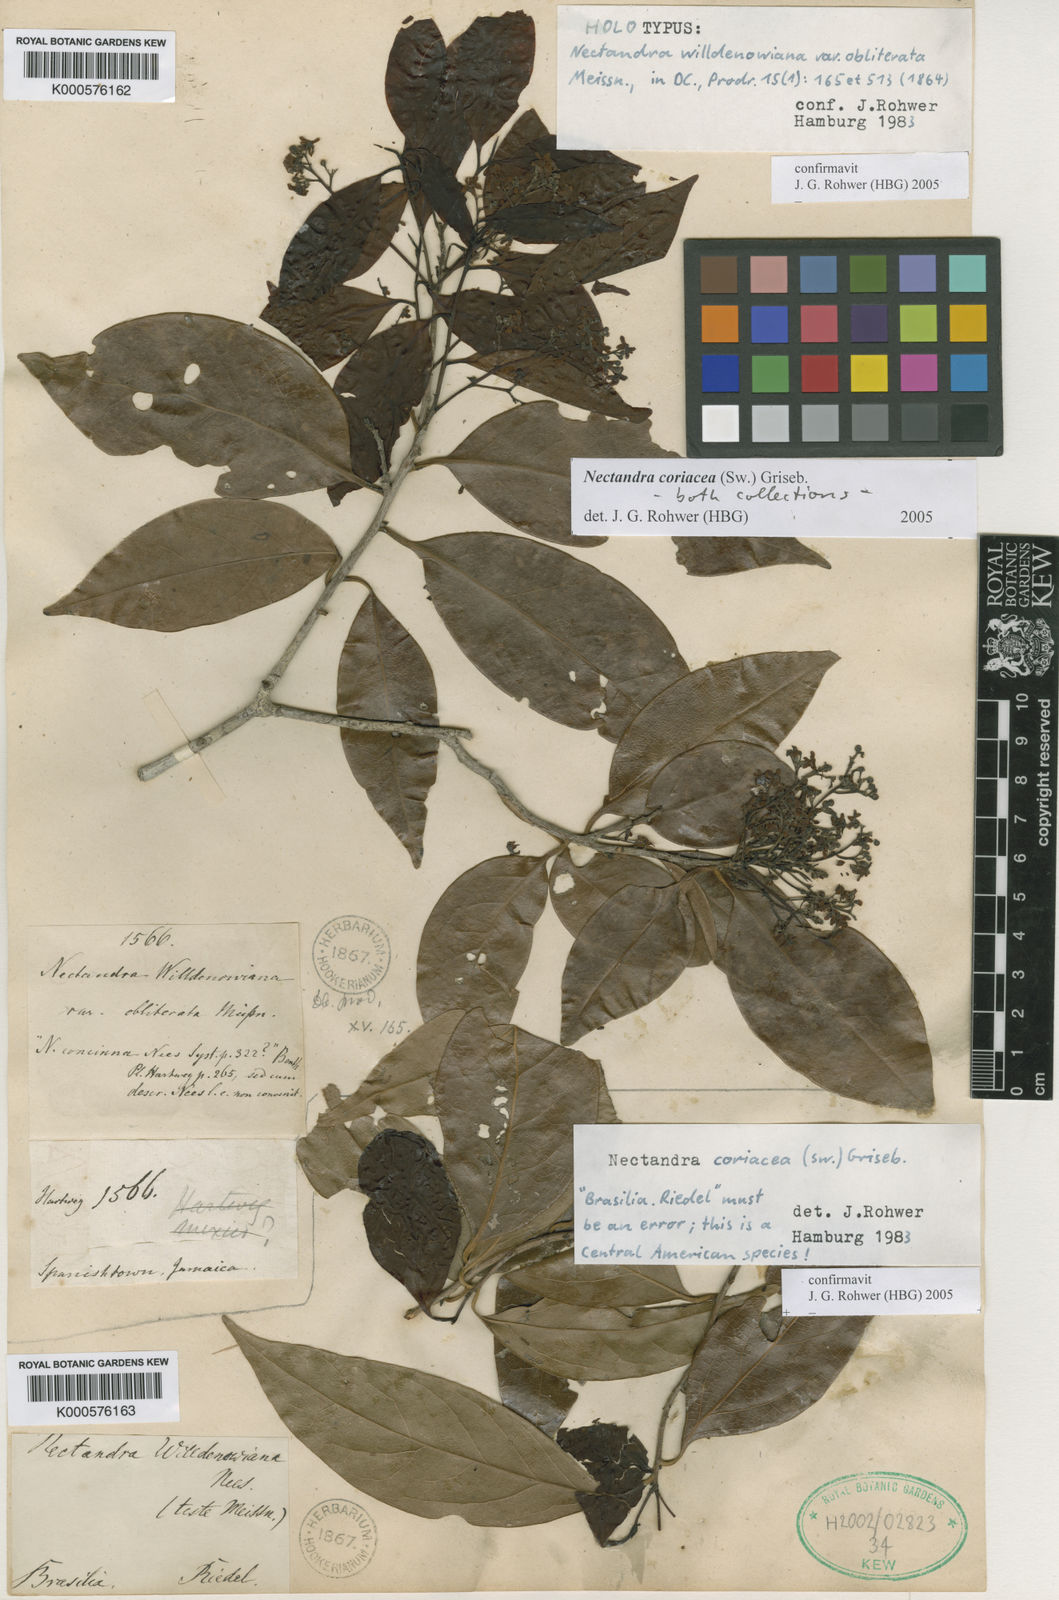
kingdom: Plantae
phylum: Tracheophyta
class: Magnoliopsida
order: Laurales
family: Lauraceae
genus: Damburneya
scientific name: Damburneya coriacea
